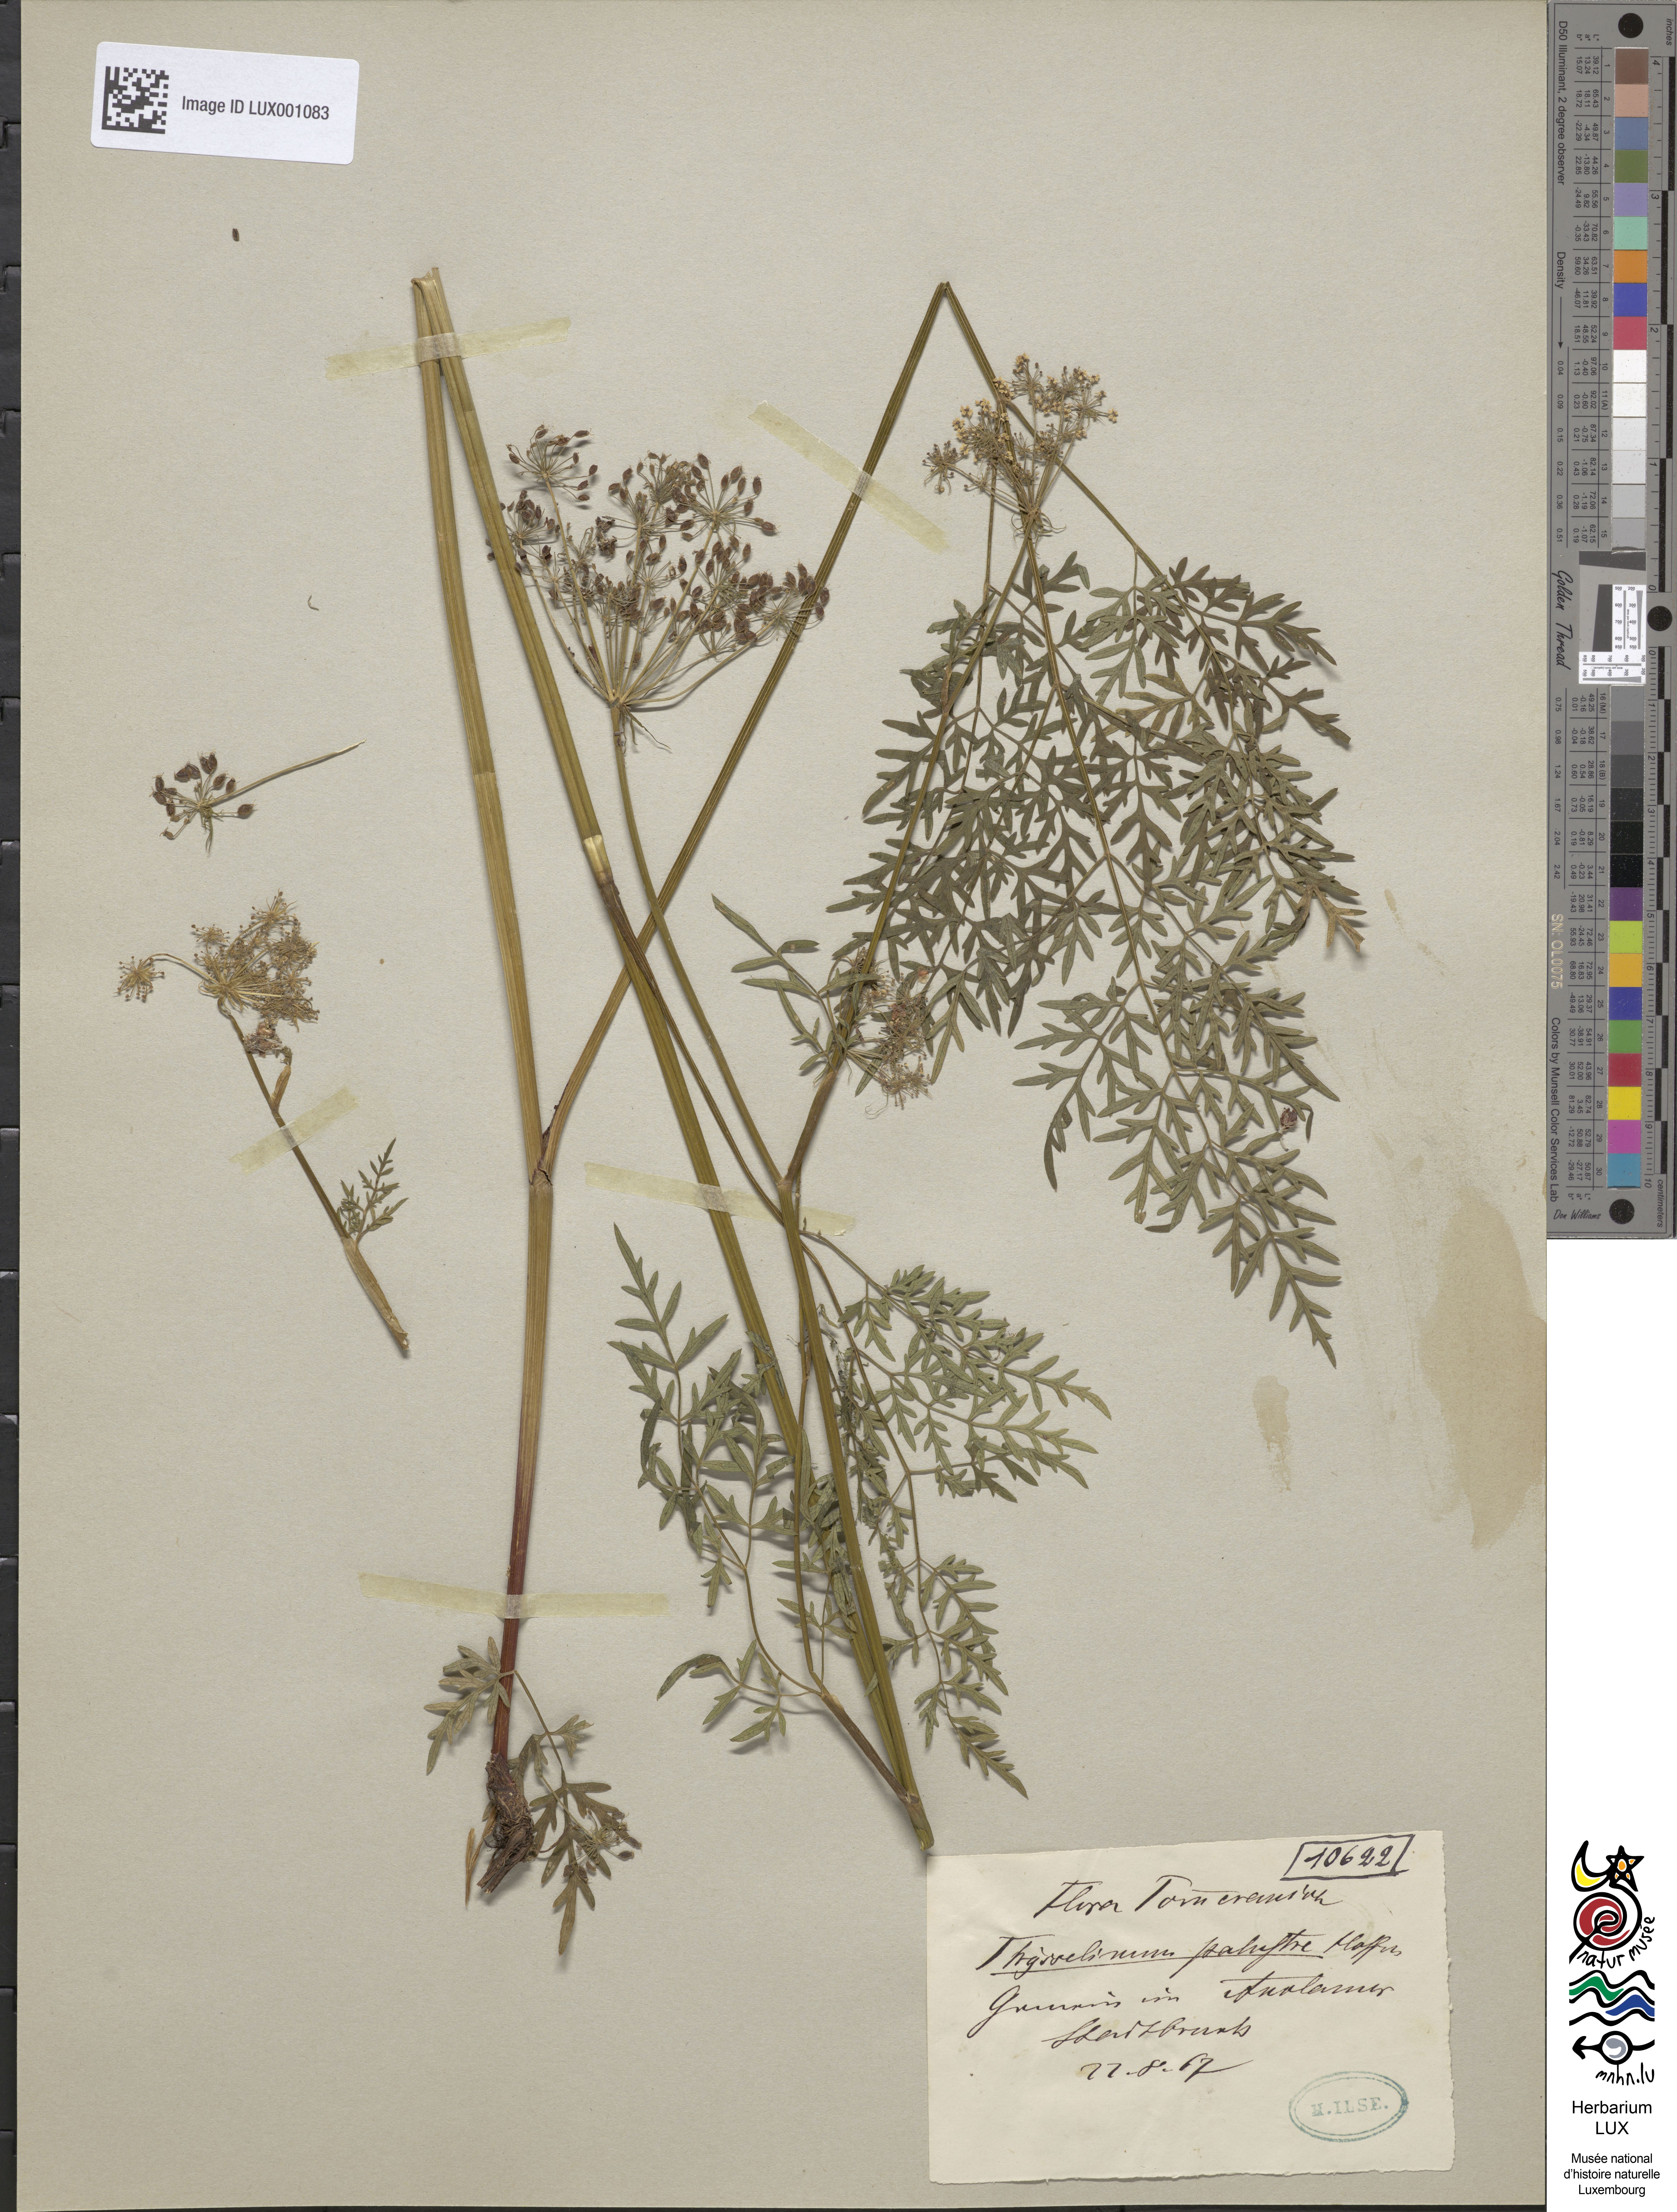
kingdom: Plantae
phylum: Tracheophyta
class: Magnoliopsida
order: Apiales
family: Apiaceae
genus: Thysselinum
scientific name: Thysselinum palustre
